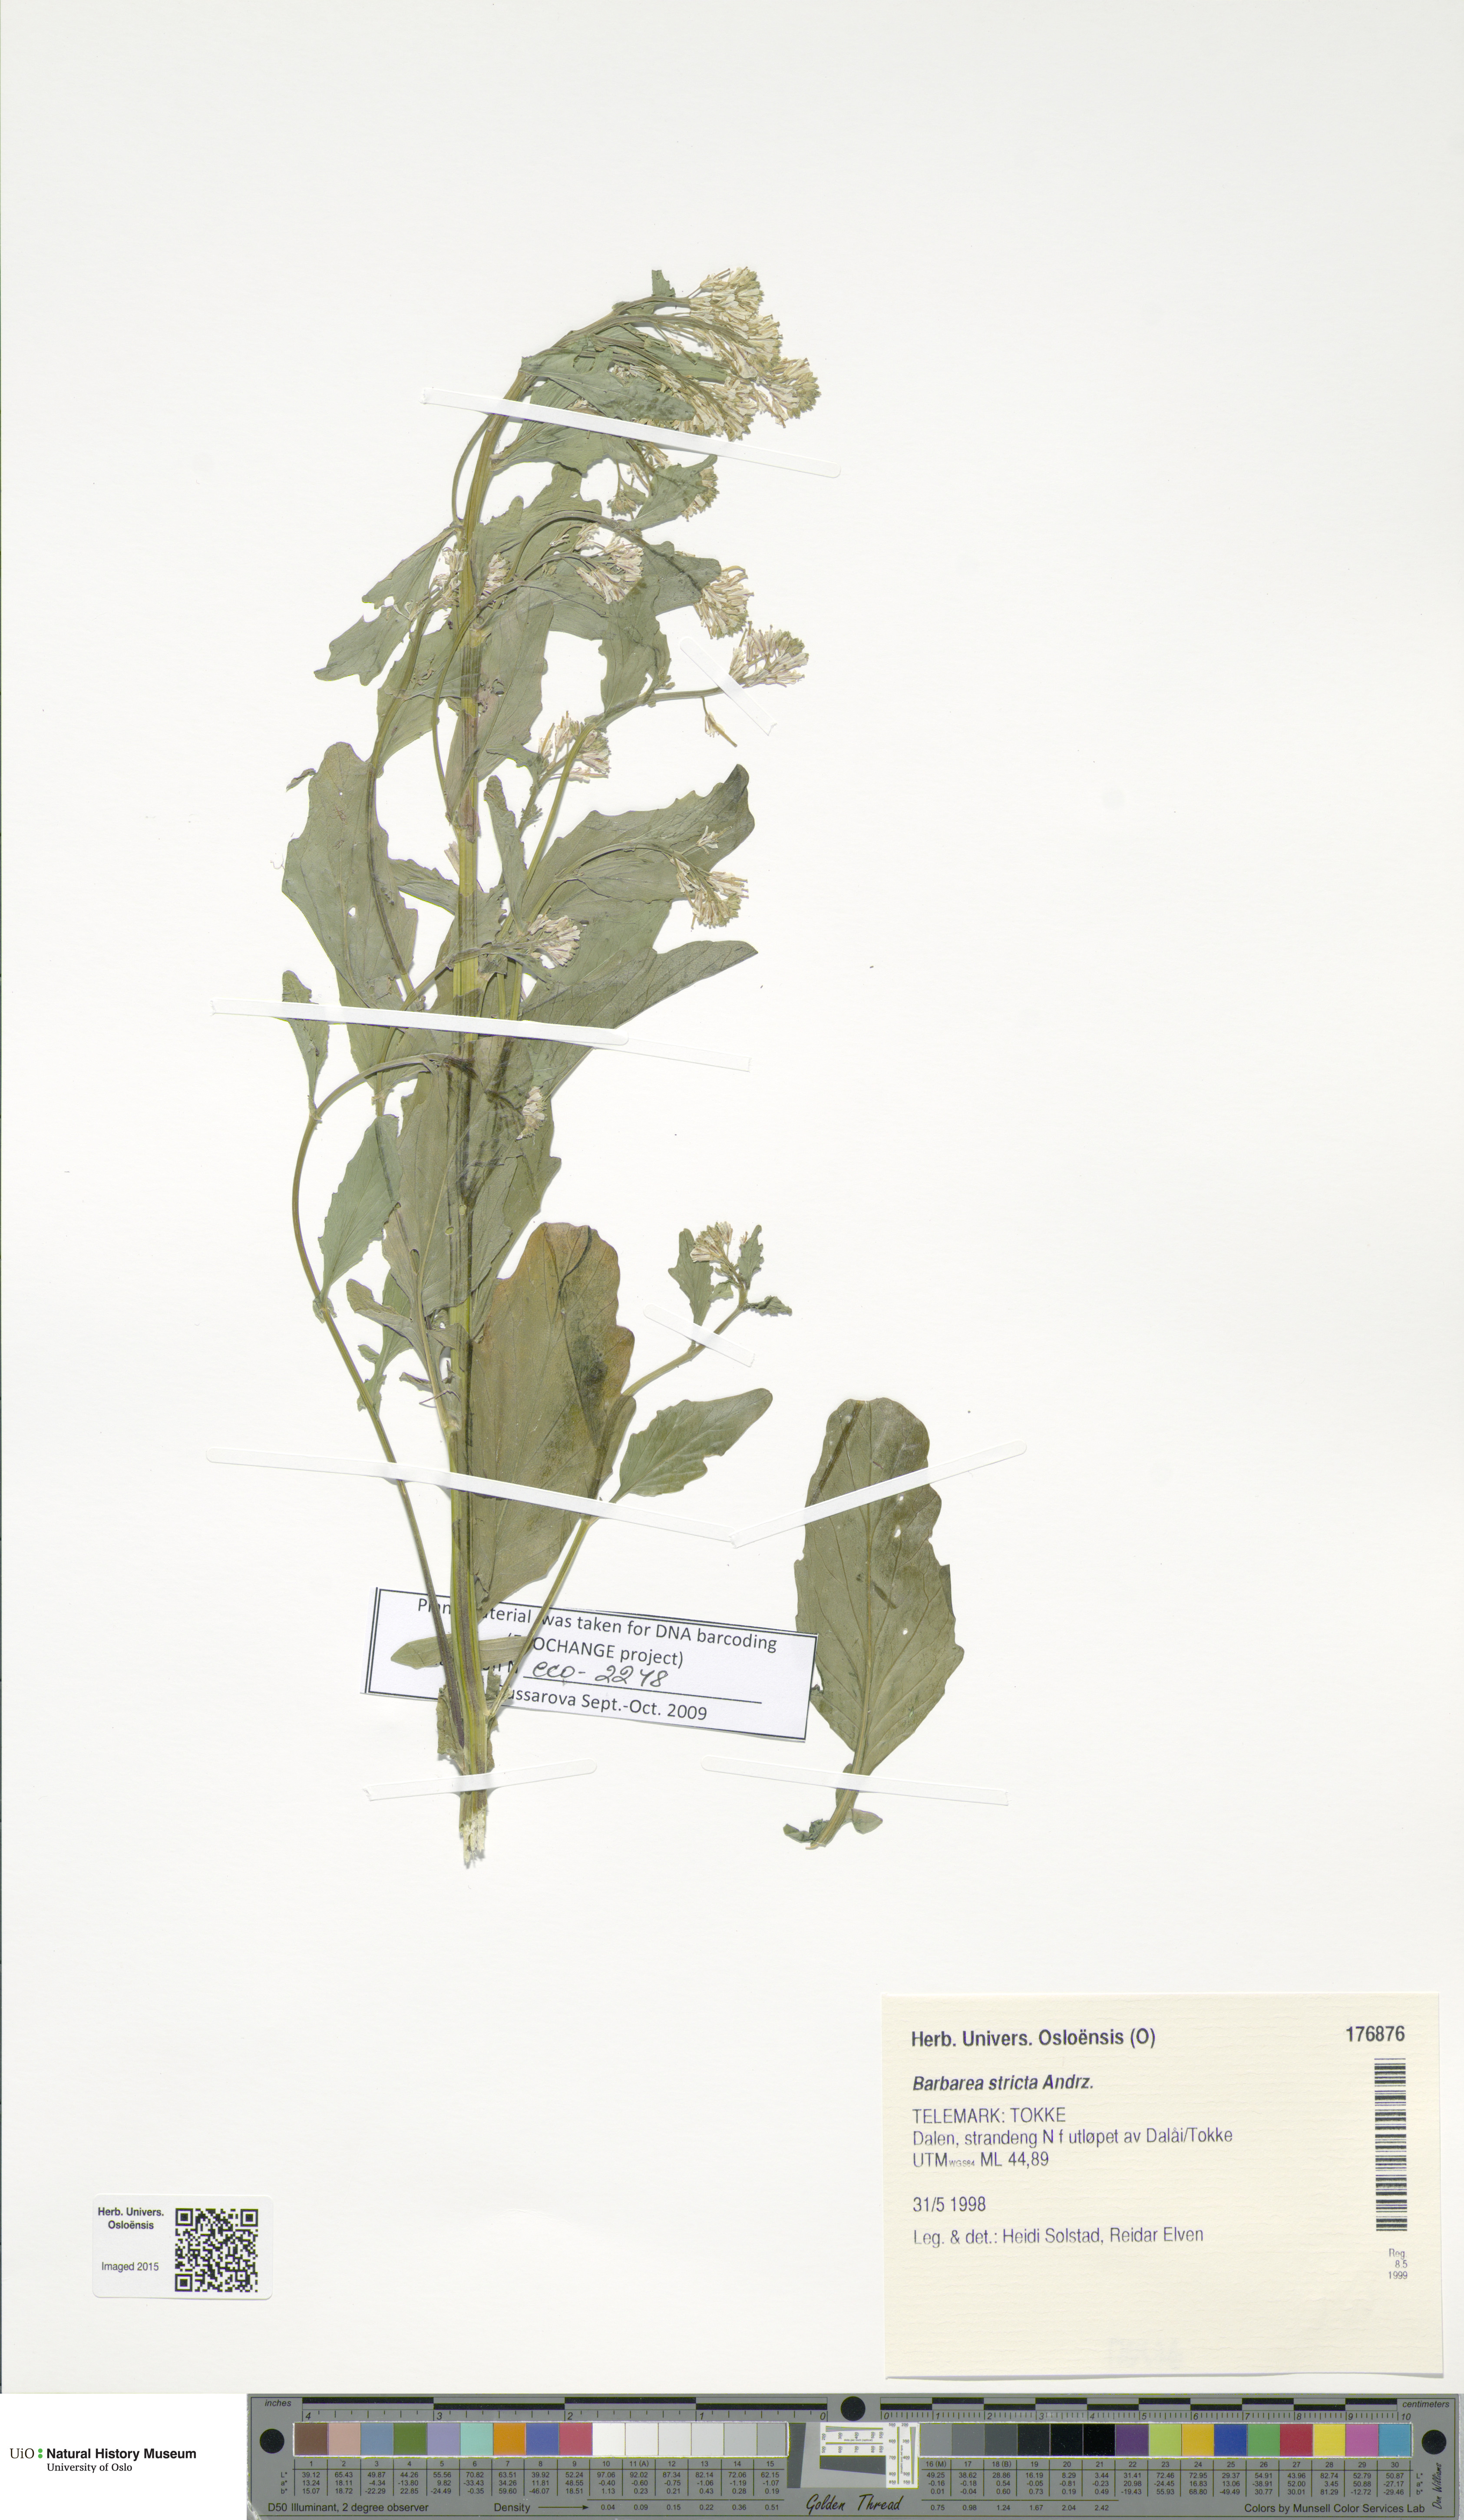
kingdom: Plantae
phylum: Tracheophyta
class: Magnoliopsida
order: Brassicales
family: Brassicaceae
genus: Barbarea
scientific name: Barbarea stricta
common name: Small-flowered winter-cress
